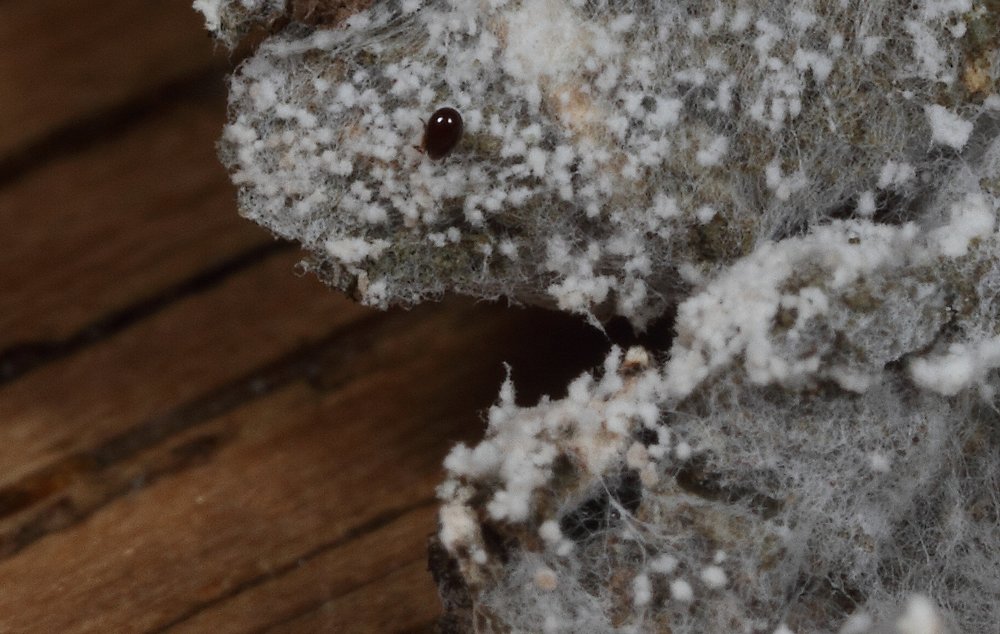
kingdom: Fungi
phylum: Basidiomycota
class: Agaricomycetes
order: Atheliales
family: Atheliaceae
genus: Athelia
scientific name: Athelia arachnoidea
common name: randet barkhinde
